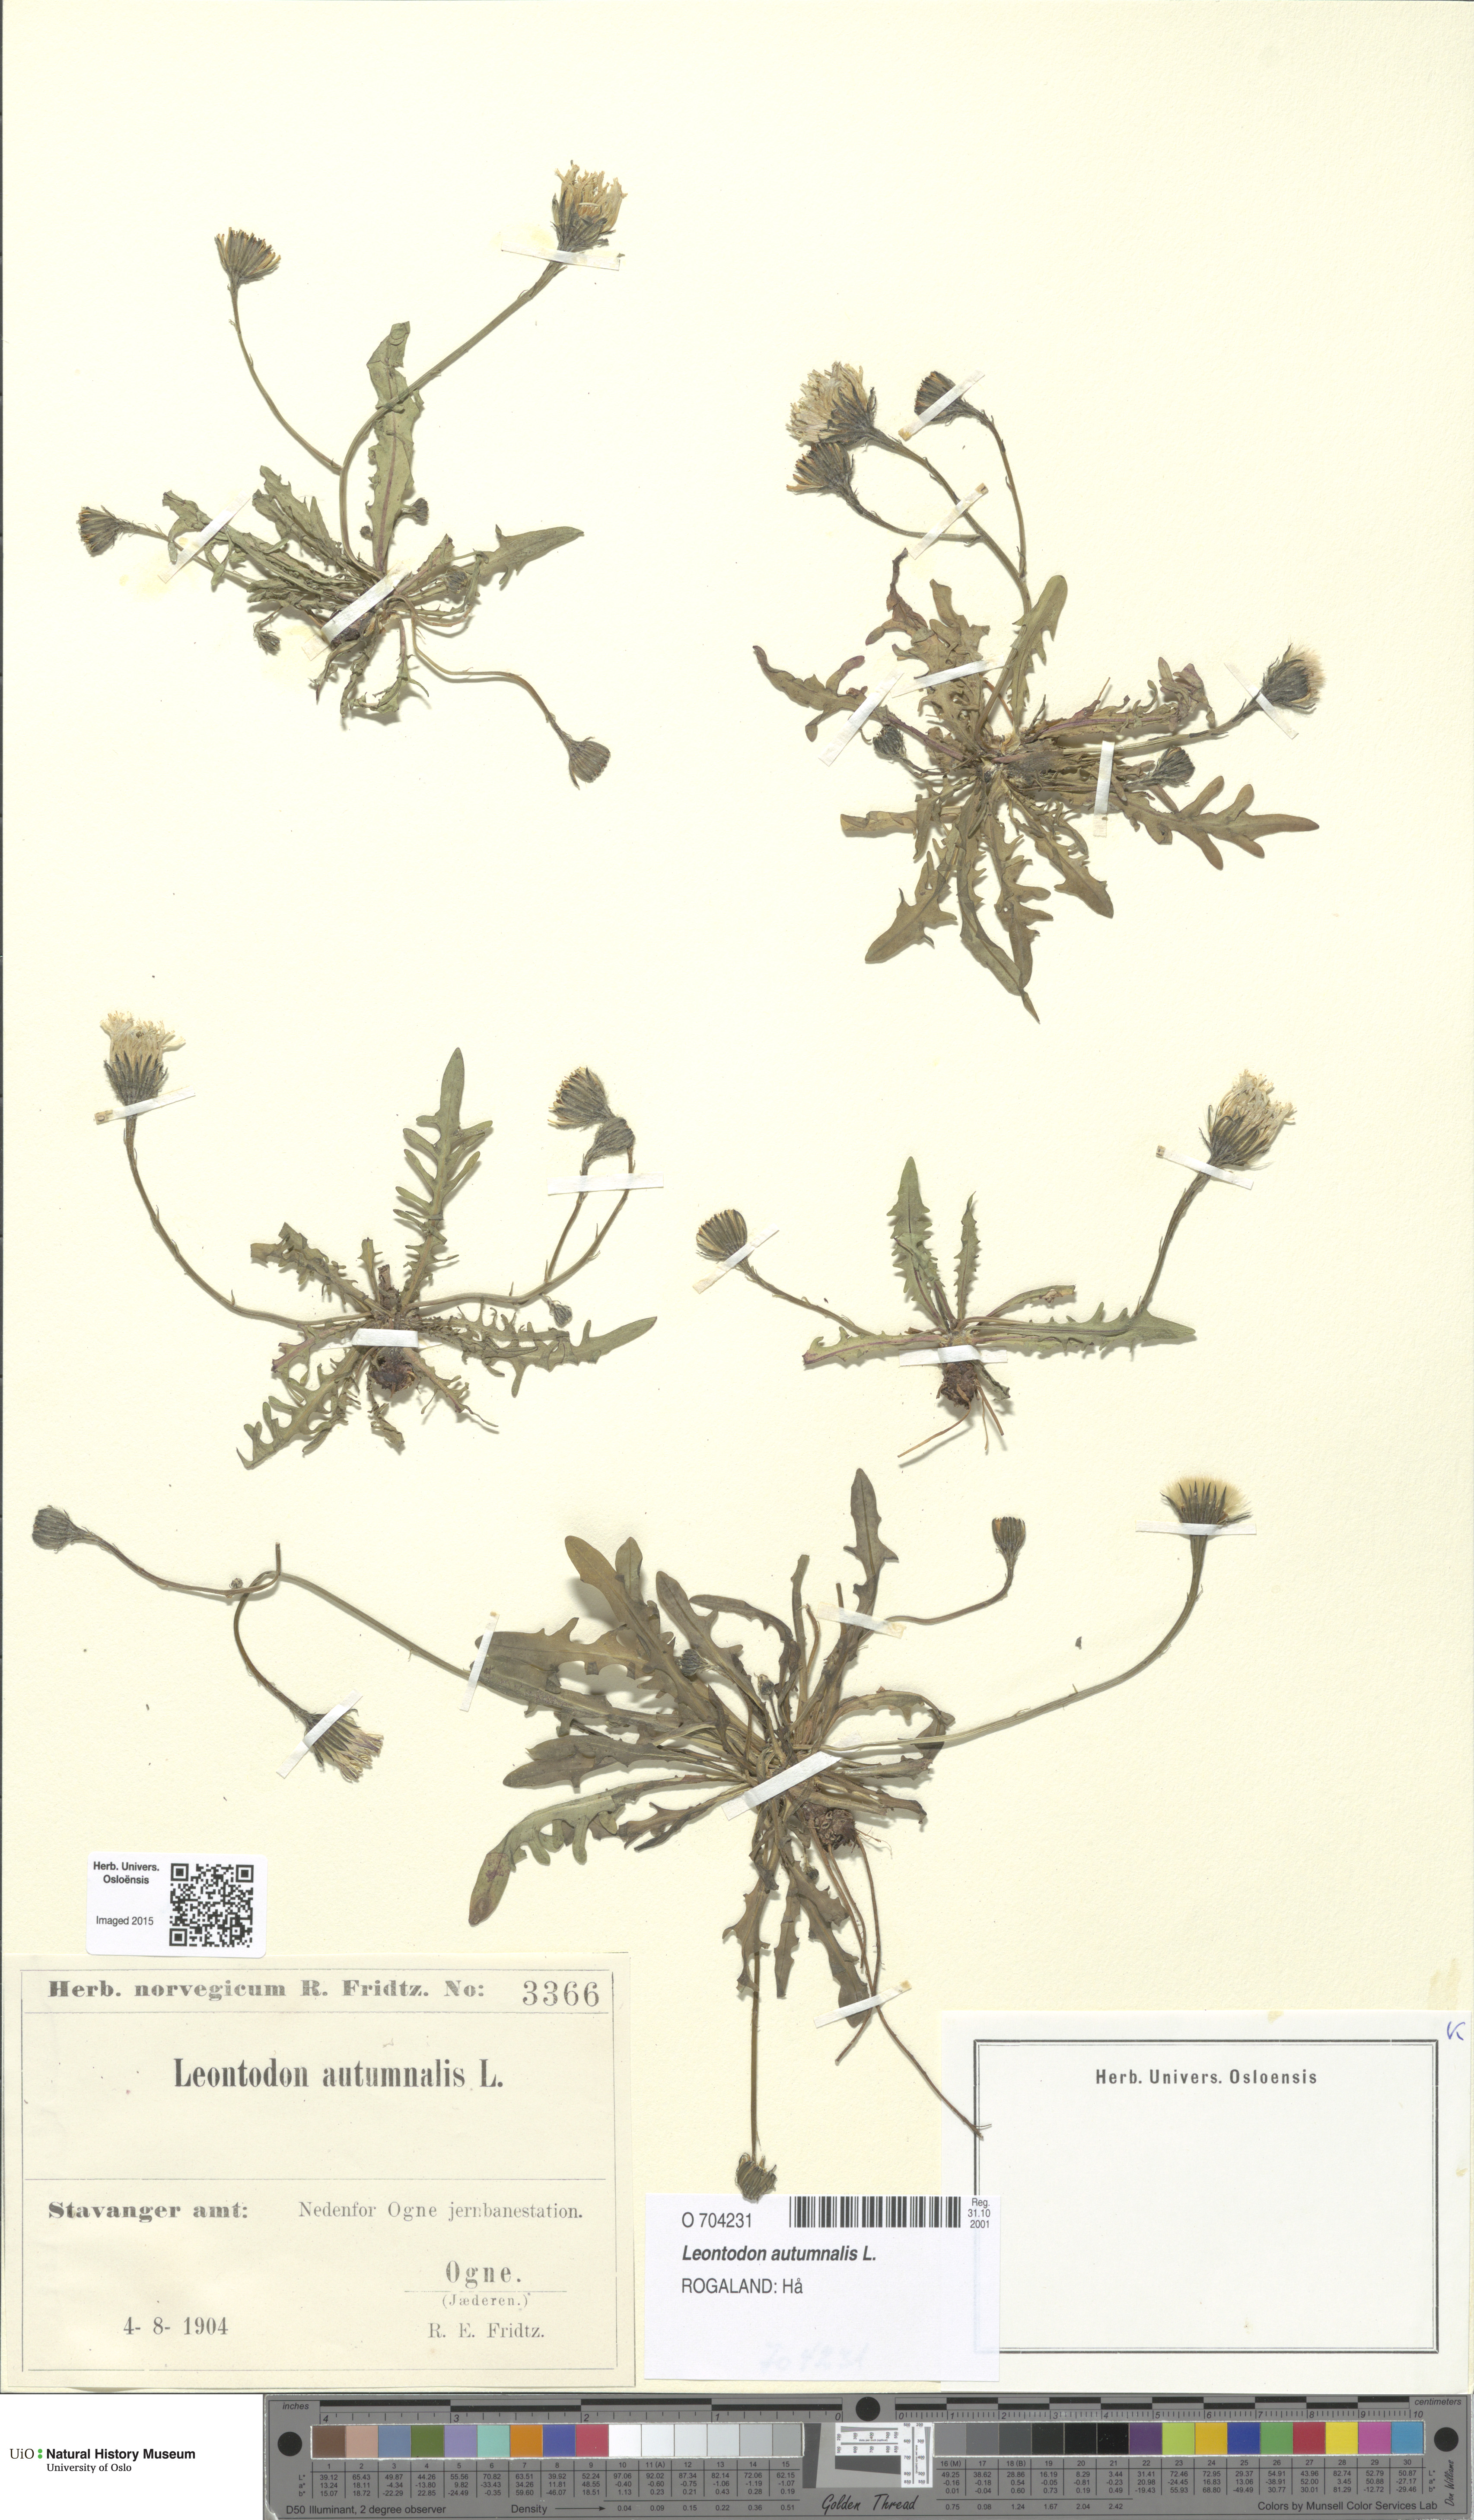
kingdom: Plantae
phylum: Tracheophyta
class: Magnoliopsida
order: Asterales
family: Asteraceae
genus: Scorzoneroides
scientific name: Scorzoneroides autumnalis
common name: Autumn hawkbit
